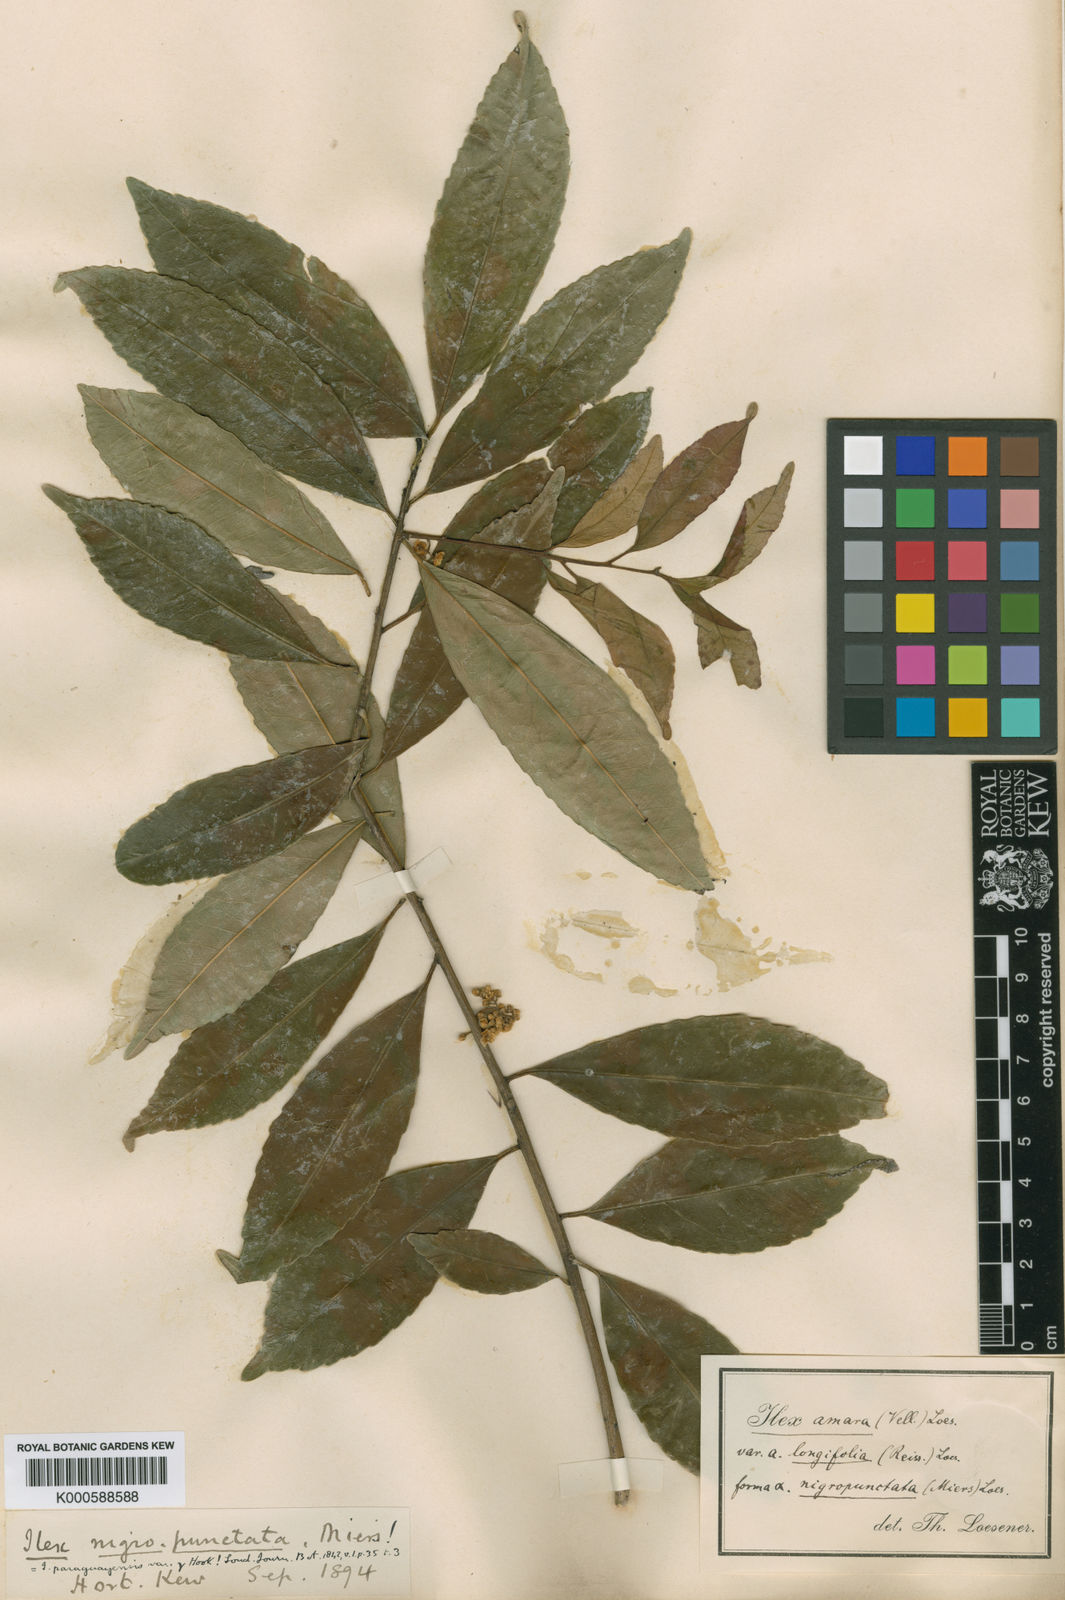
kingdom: Plantae
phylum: Tracheophyta
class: Magnoliopsida
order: Aquifoliales
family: Aquifoliaceae
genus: Ilex
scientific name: Ilex
